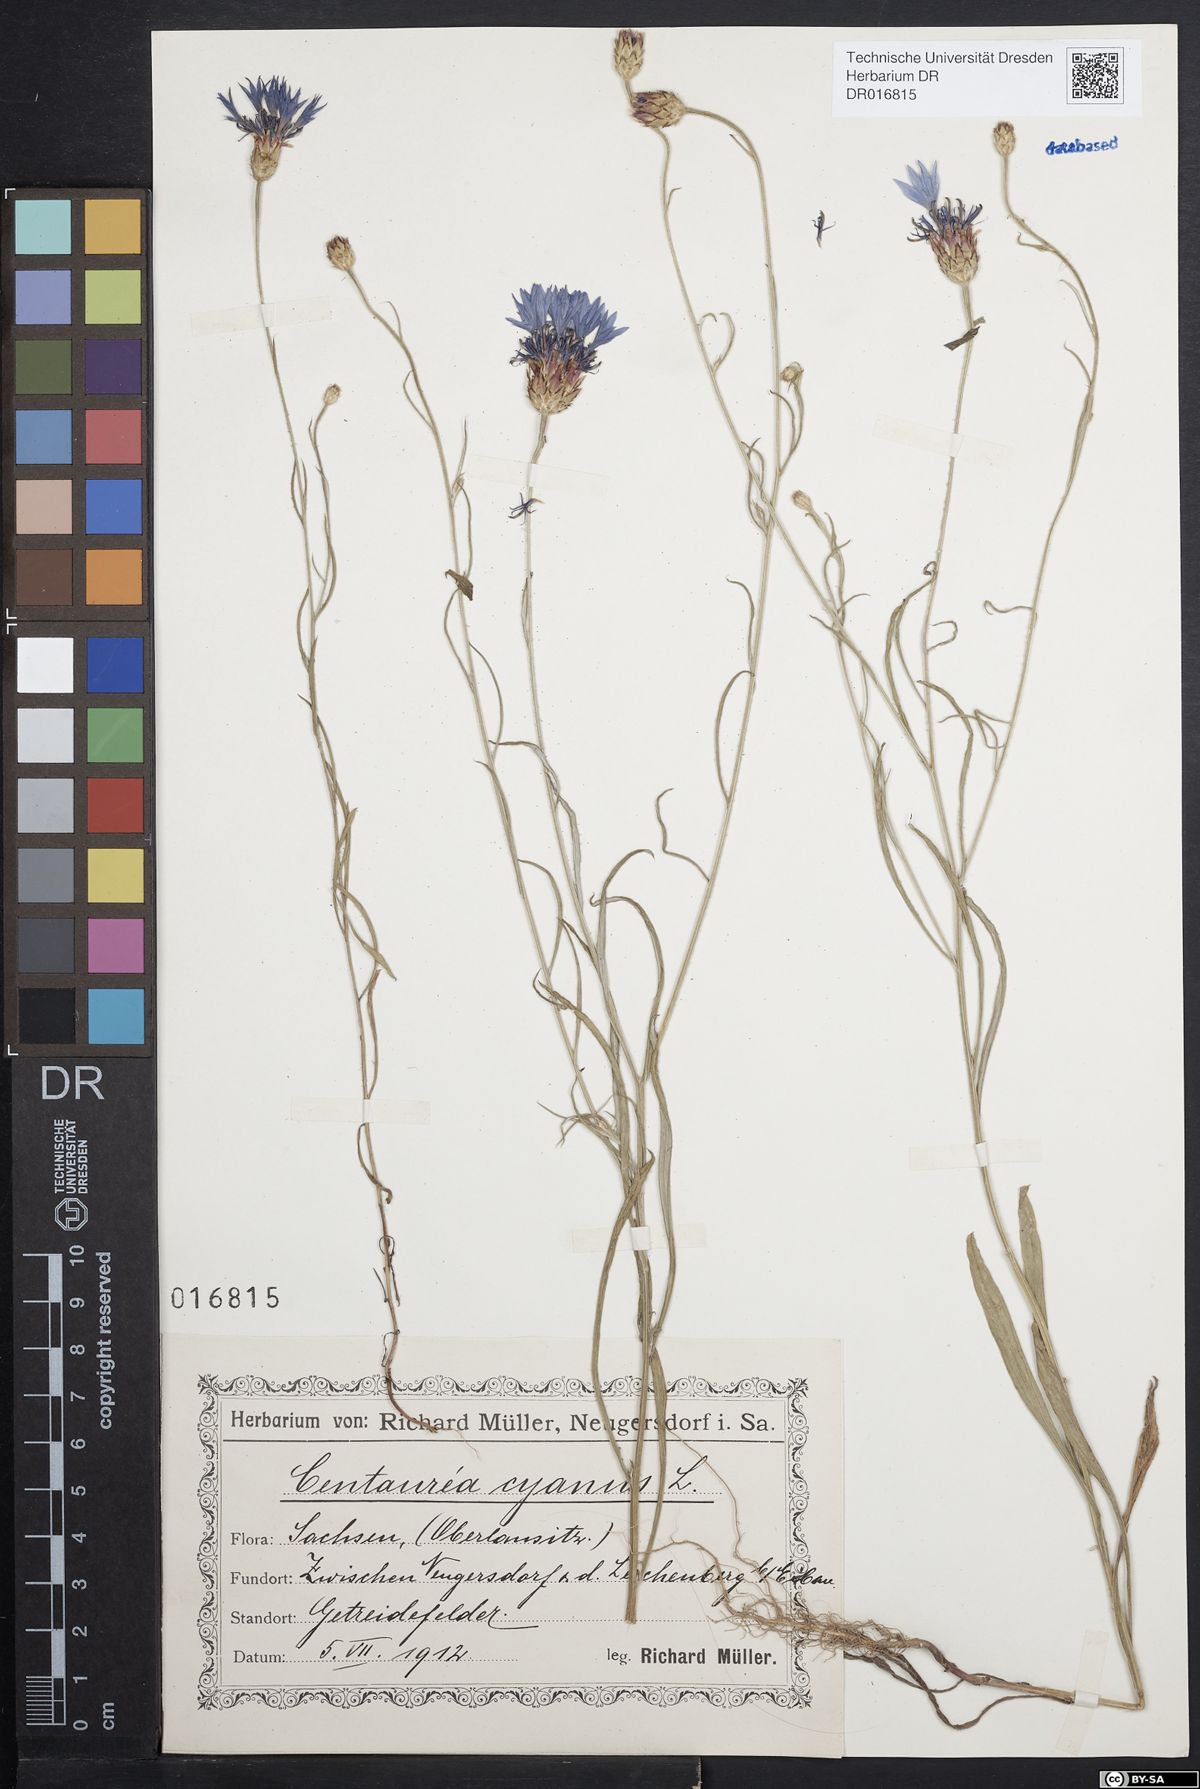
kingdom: Plantae
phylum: Tracheophyta
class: Magnoliopsida
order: Asterales
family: Asteraceae
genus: Centaurea
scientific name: Centaurea cyanus
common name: Cornflower
